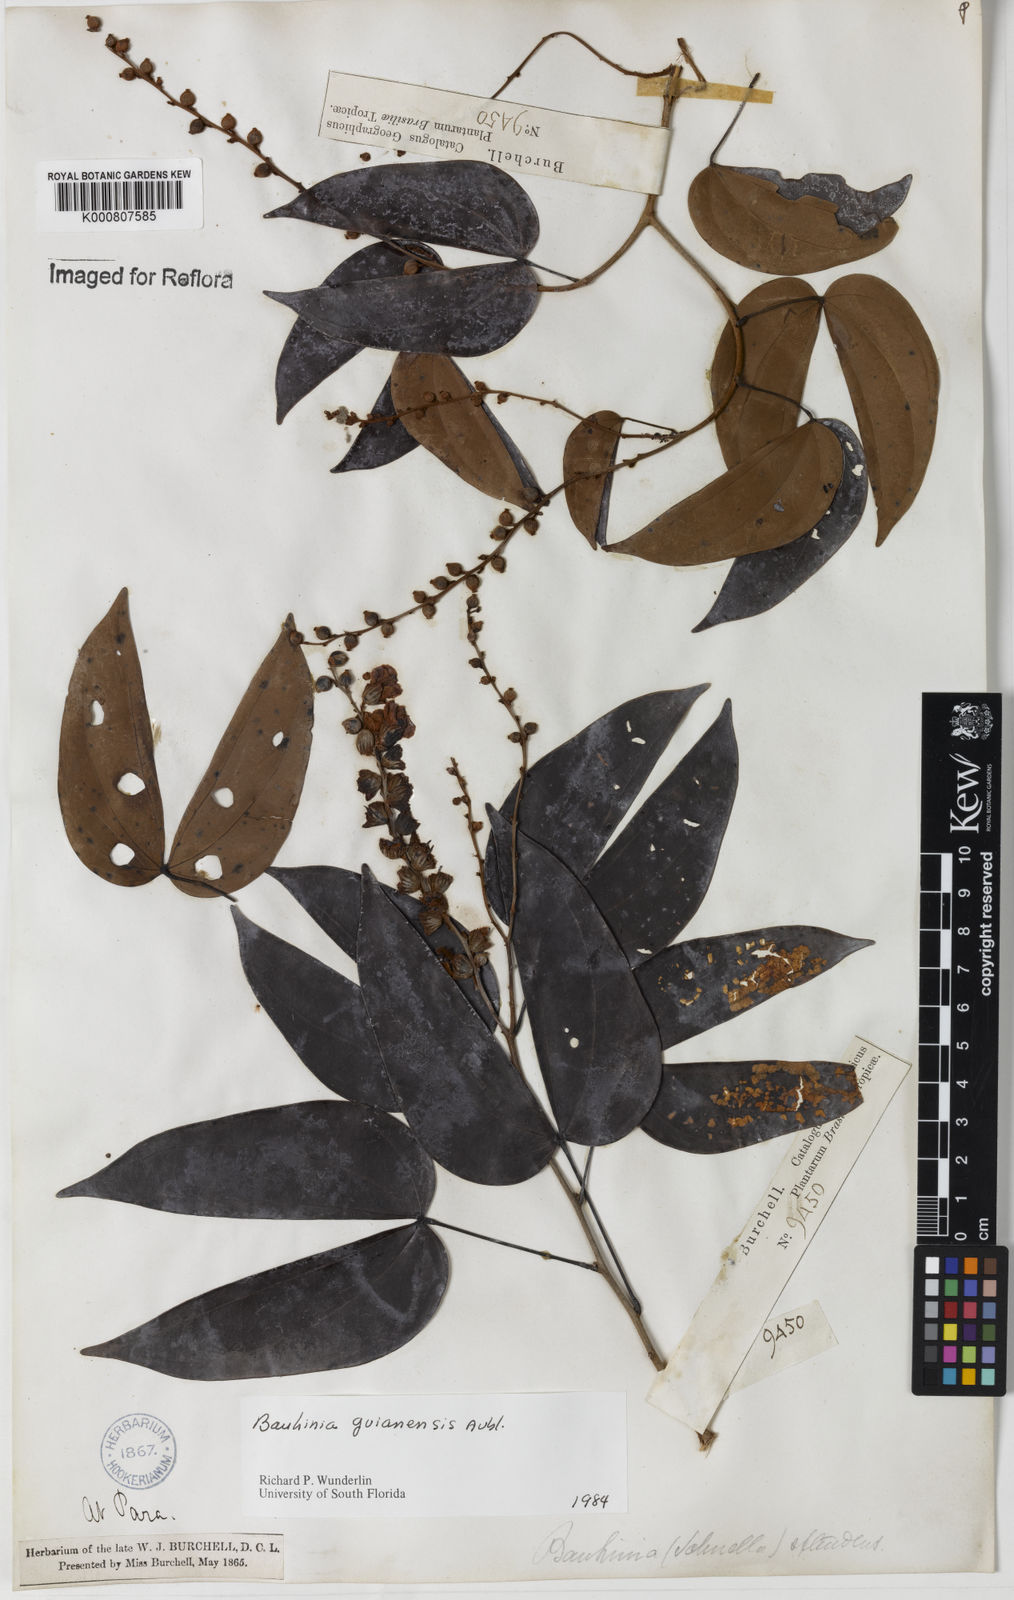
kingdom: Plantae
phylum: Tracheophyta
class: Magnoliopsida
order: Fabales
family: Fabaceae
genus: Schnella
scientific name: Schnella guianensis
